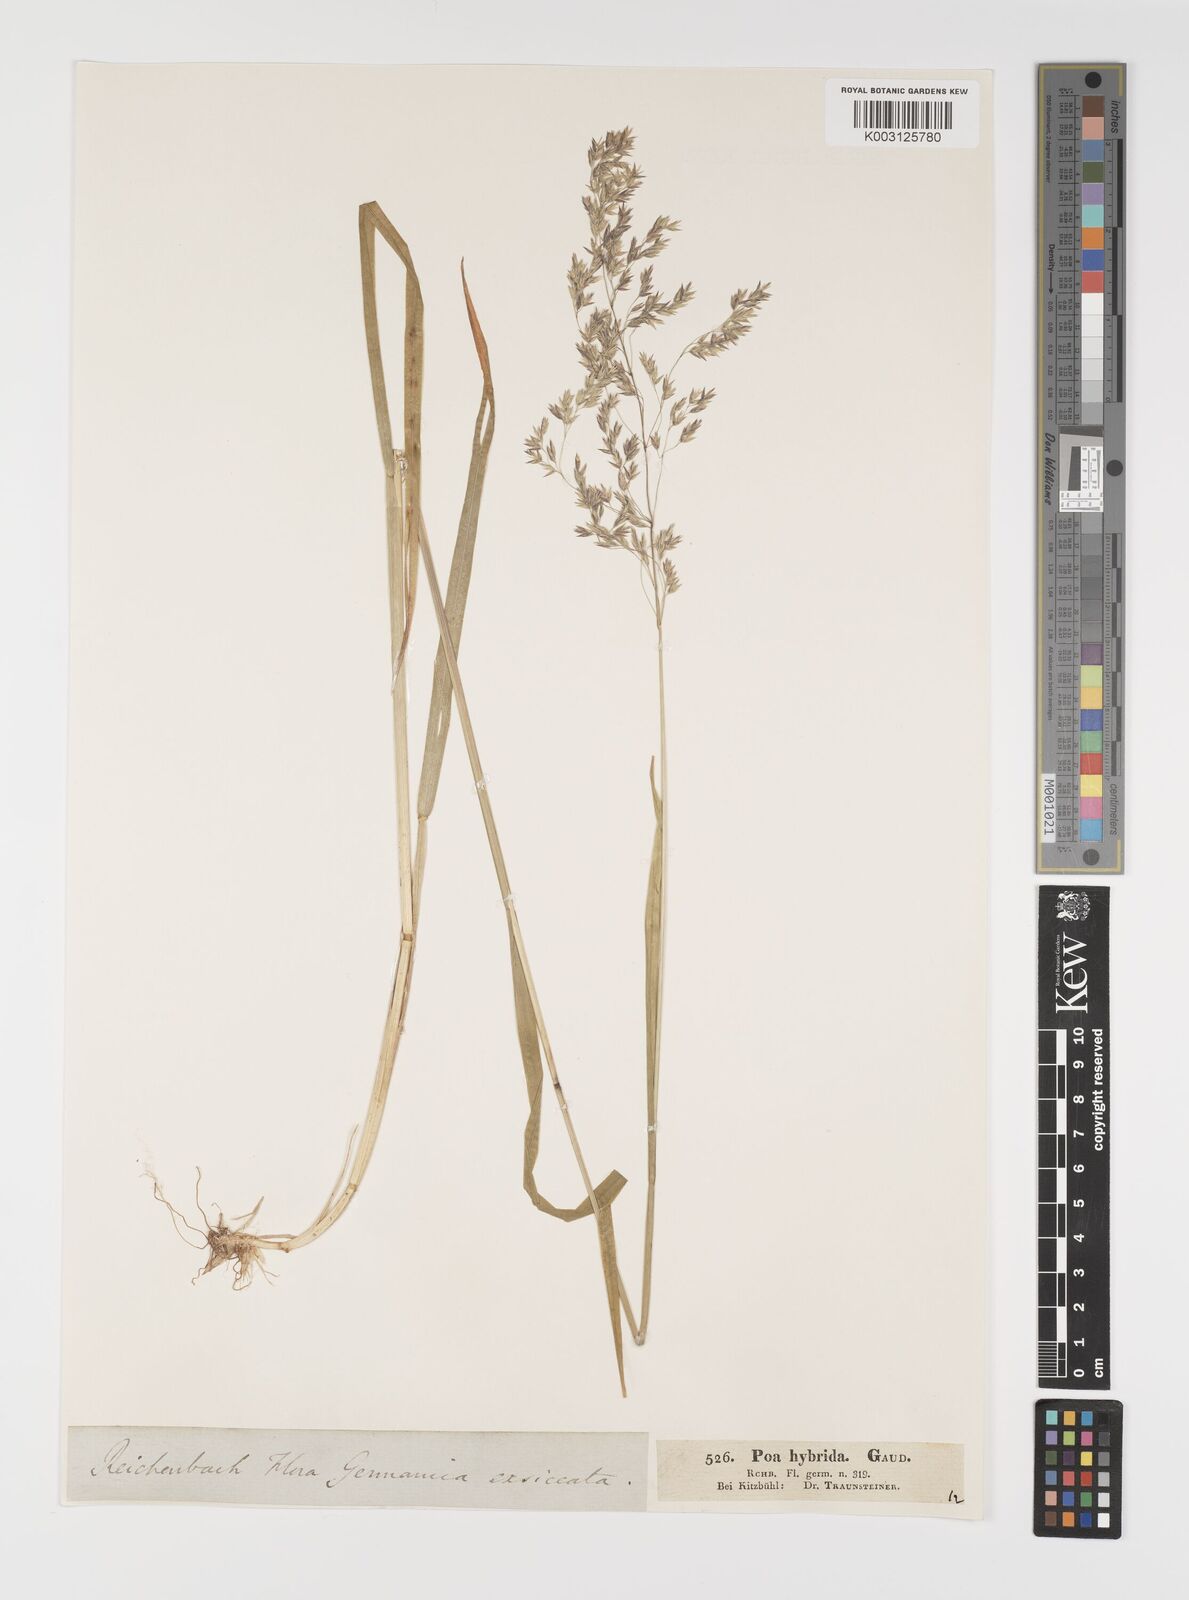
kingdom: Plantae
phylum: Tracheophyta
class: Liliopsida
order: Poales
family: Poaceae
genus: Poa
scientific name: Poa hybrida
